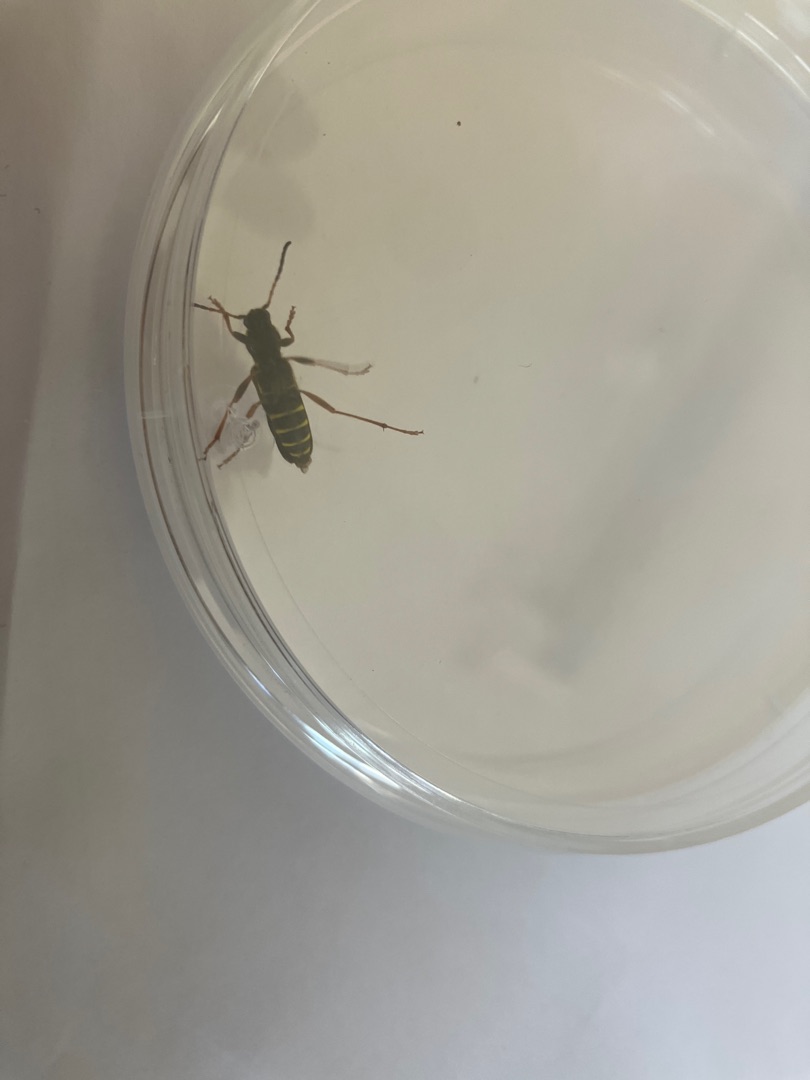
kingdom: Animalia
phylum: Arthropoda
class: Insecta
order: Coleoptera
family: Cerambycidae
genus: Clytus
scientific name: Clytus arietis
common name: Lille hvepsebuk
